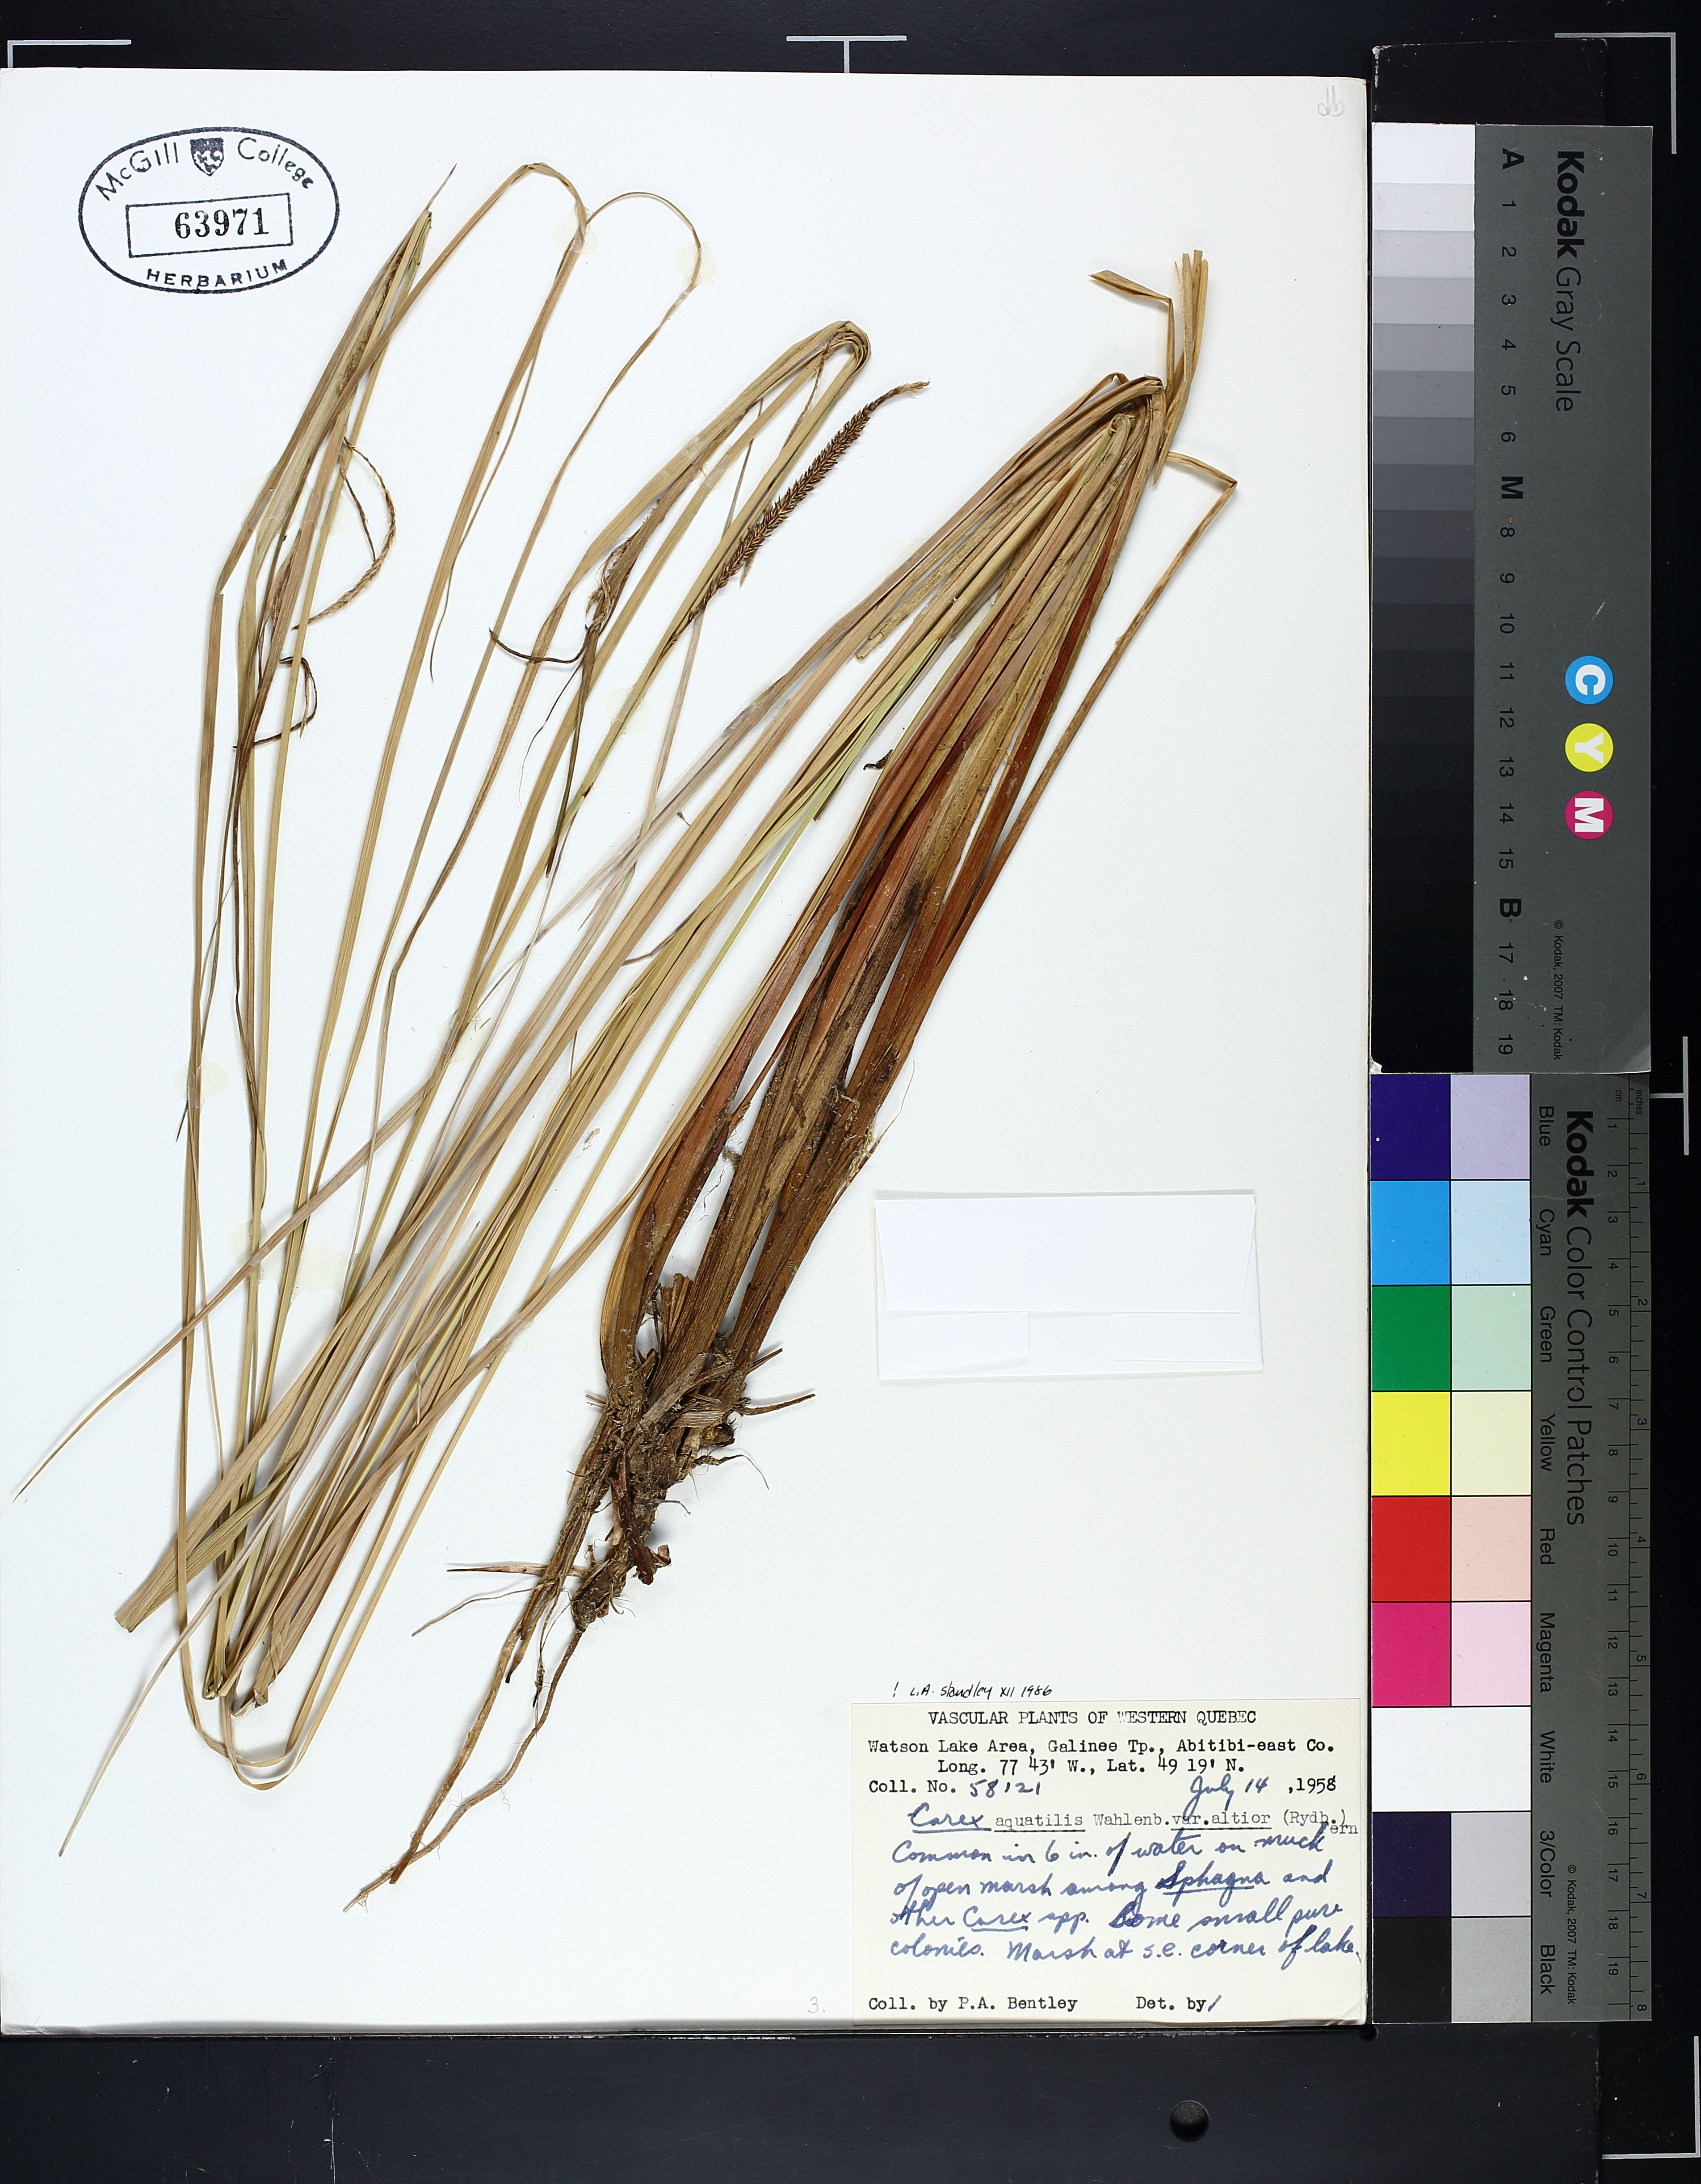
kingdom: Plantae
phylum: Tracheophyta
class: Liliopsida
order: Poales
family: Cyperaceae
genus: Carex
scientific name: Carex emoryi
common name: Emory's sedge
